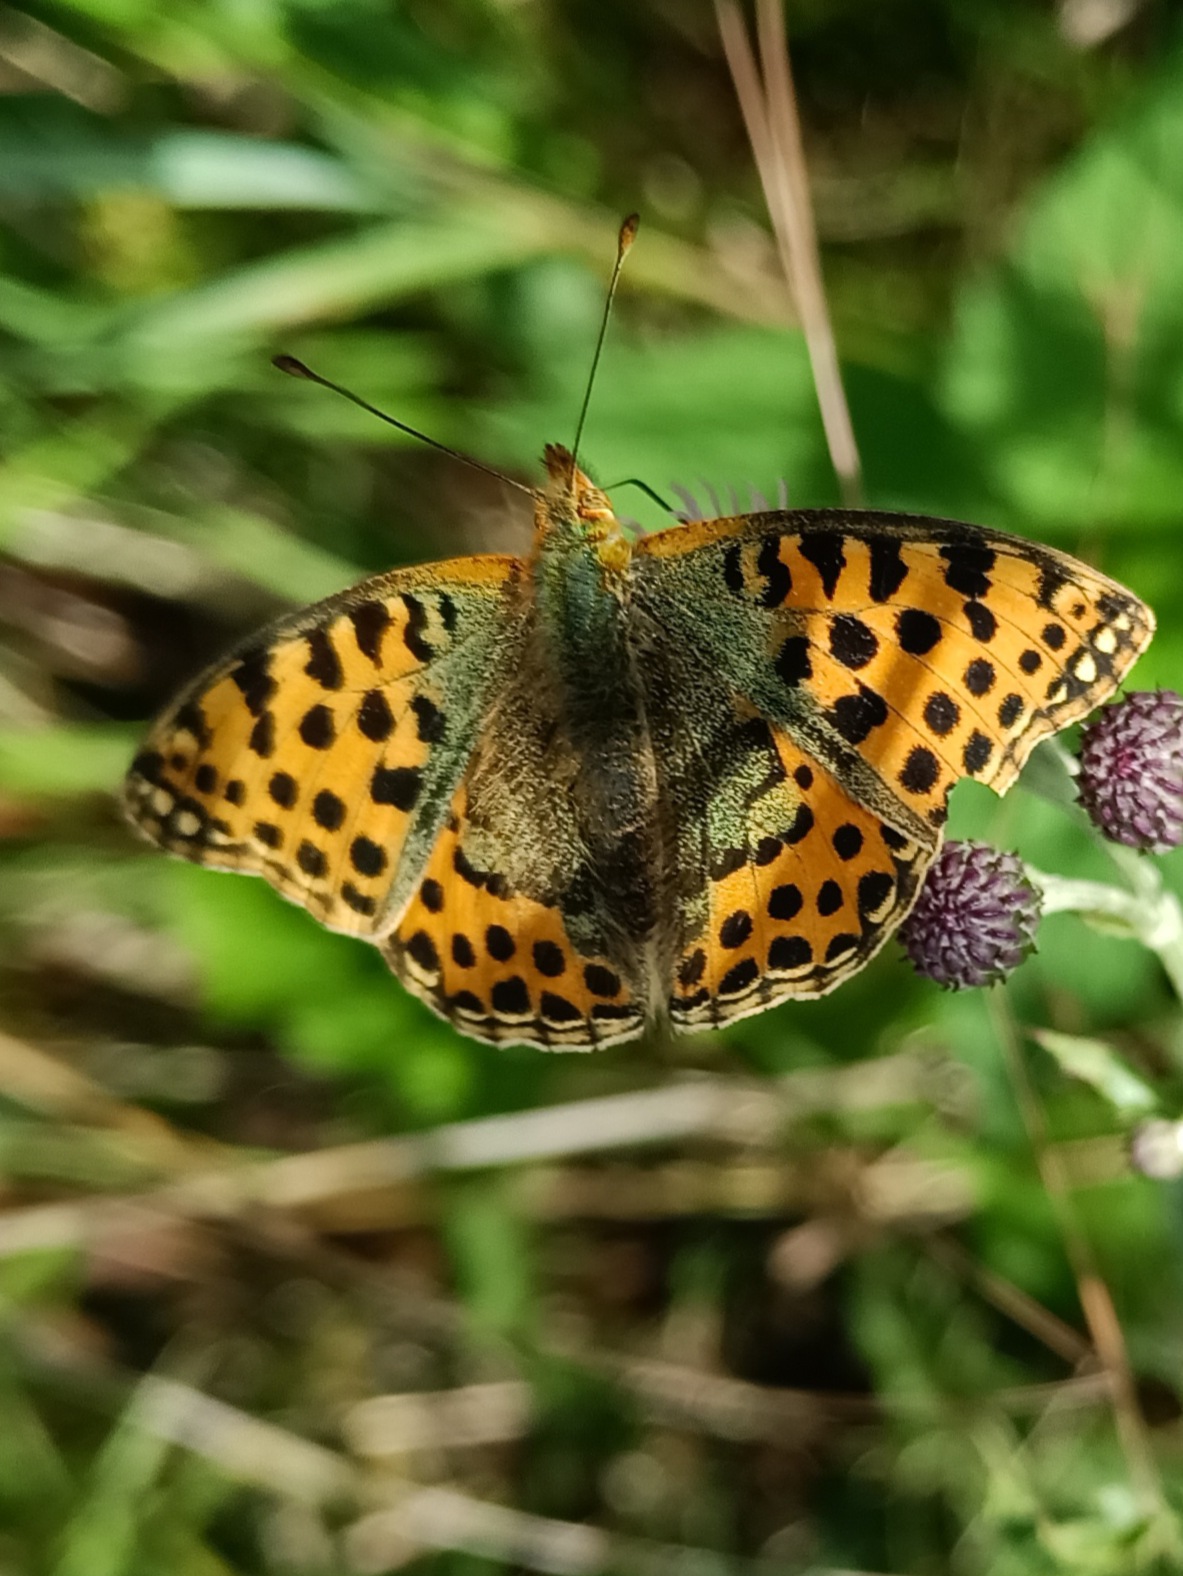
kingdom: Animalia
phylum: Arthropoda
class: Insecta
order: Lepidoptera
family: Nymphalidae
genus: Issoria
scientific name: Issoria lathonia
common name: Storplettet perlemorsommerfugl
